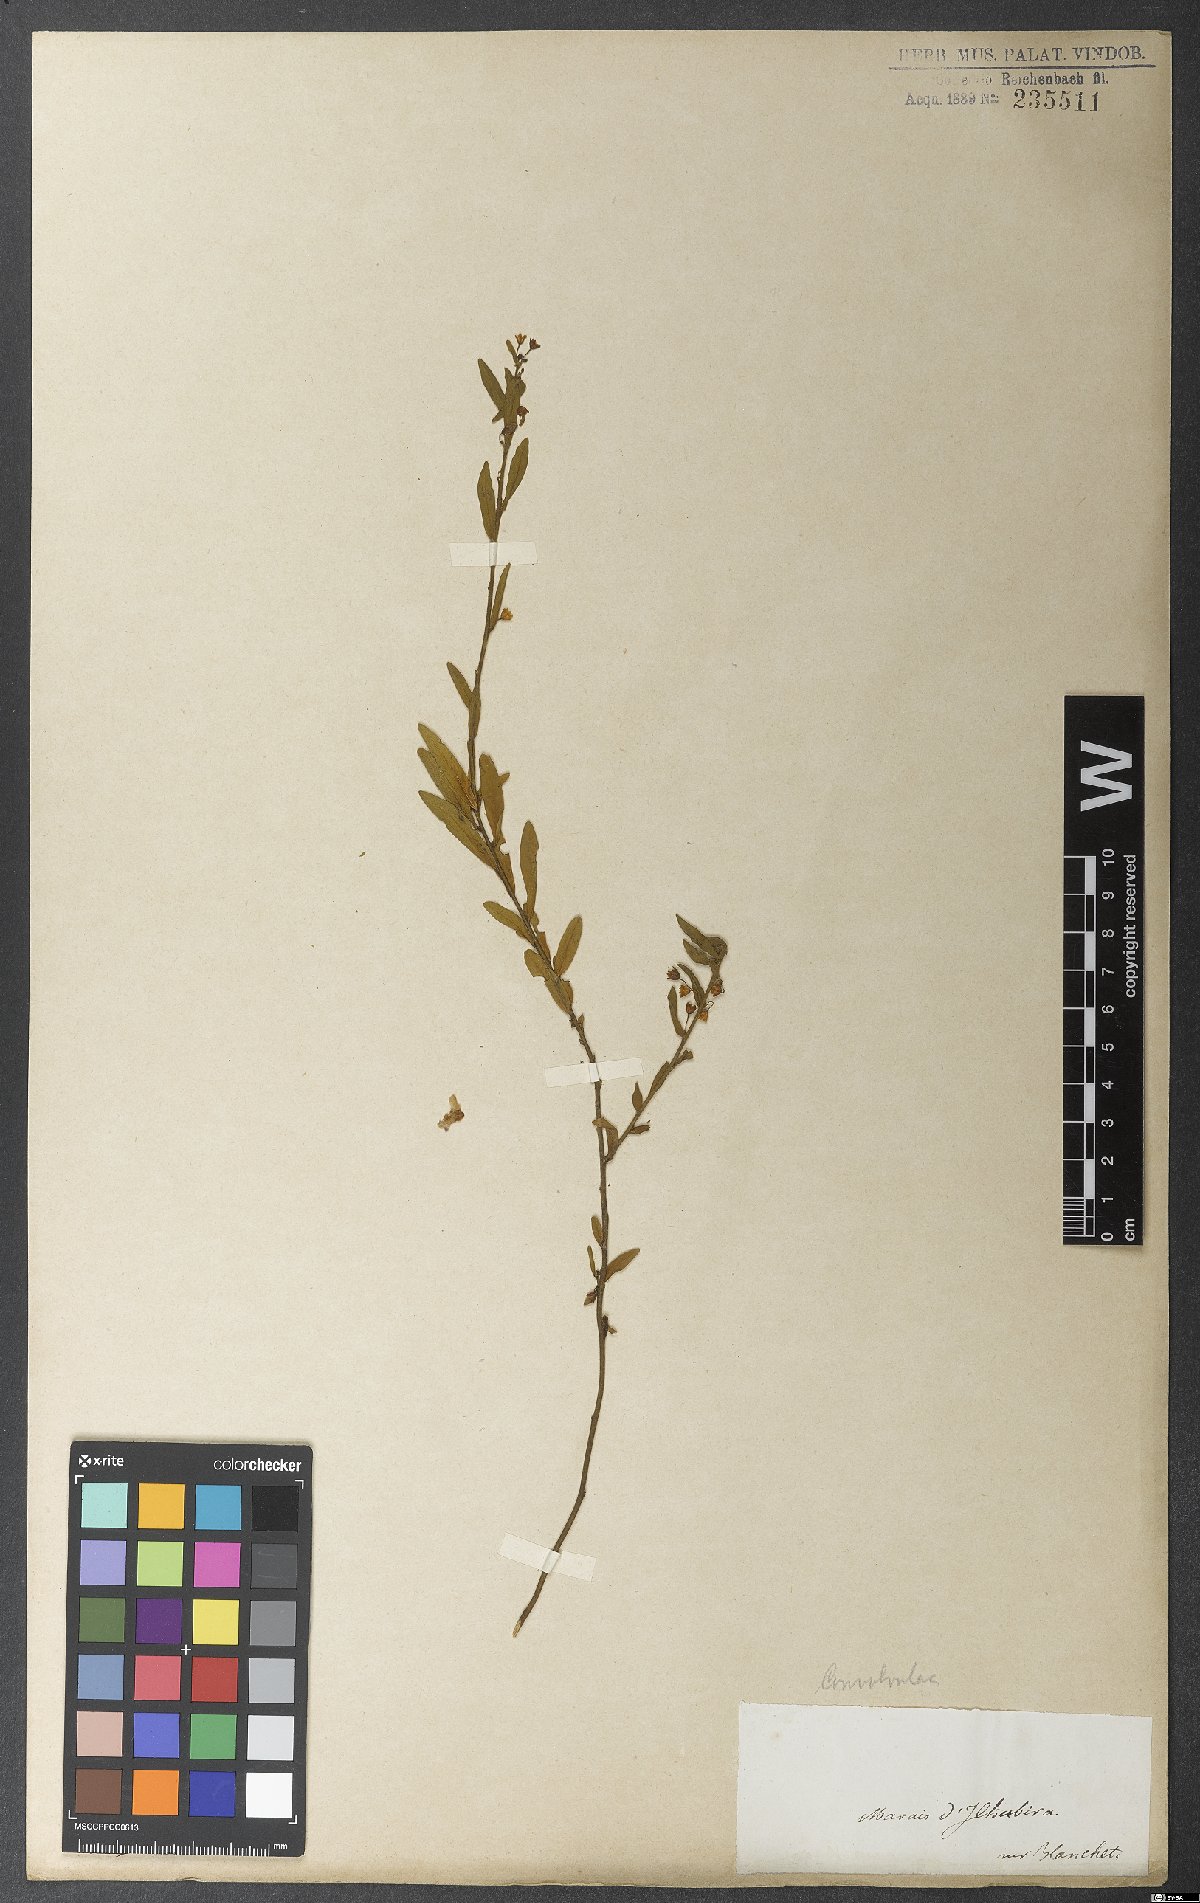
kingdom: Plantae
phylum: Tracheophyta
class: Magnoliopsida
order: Solanales
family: Convolvulaceae
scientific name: Convolvulaceae
